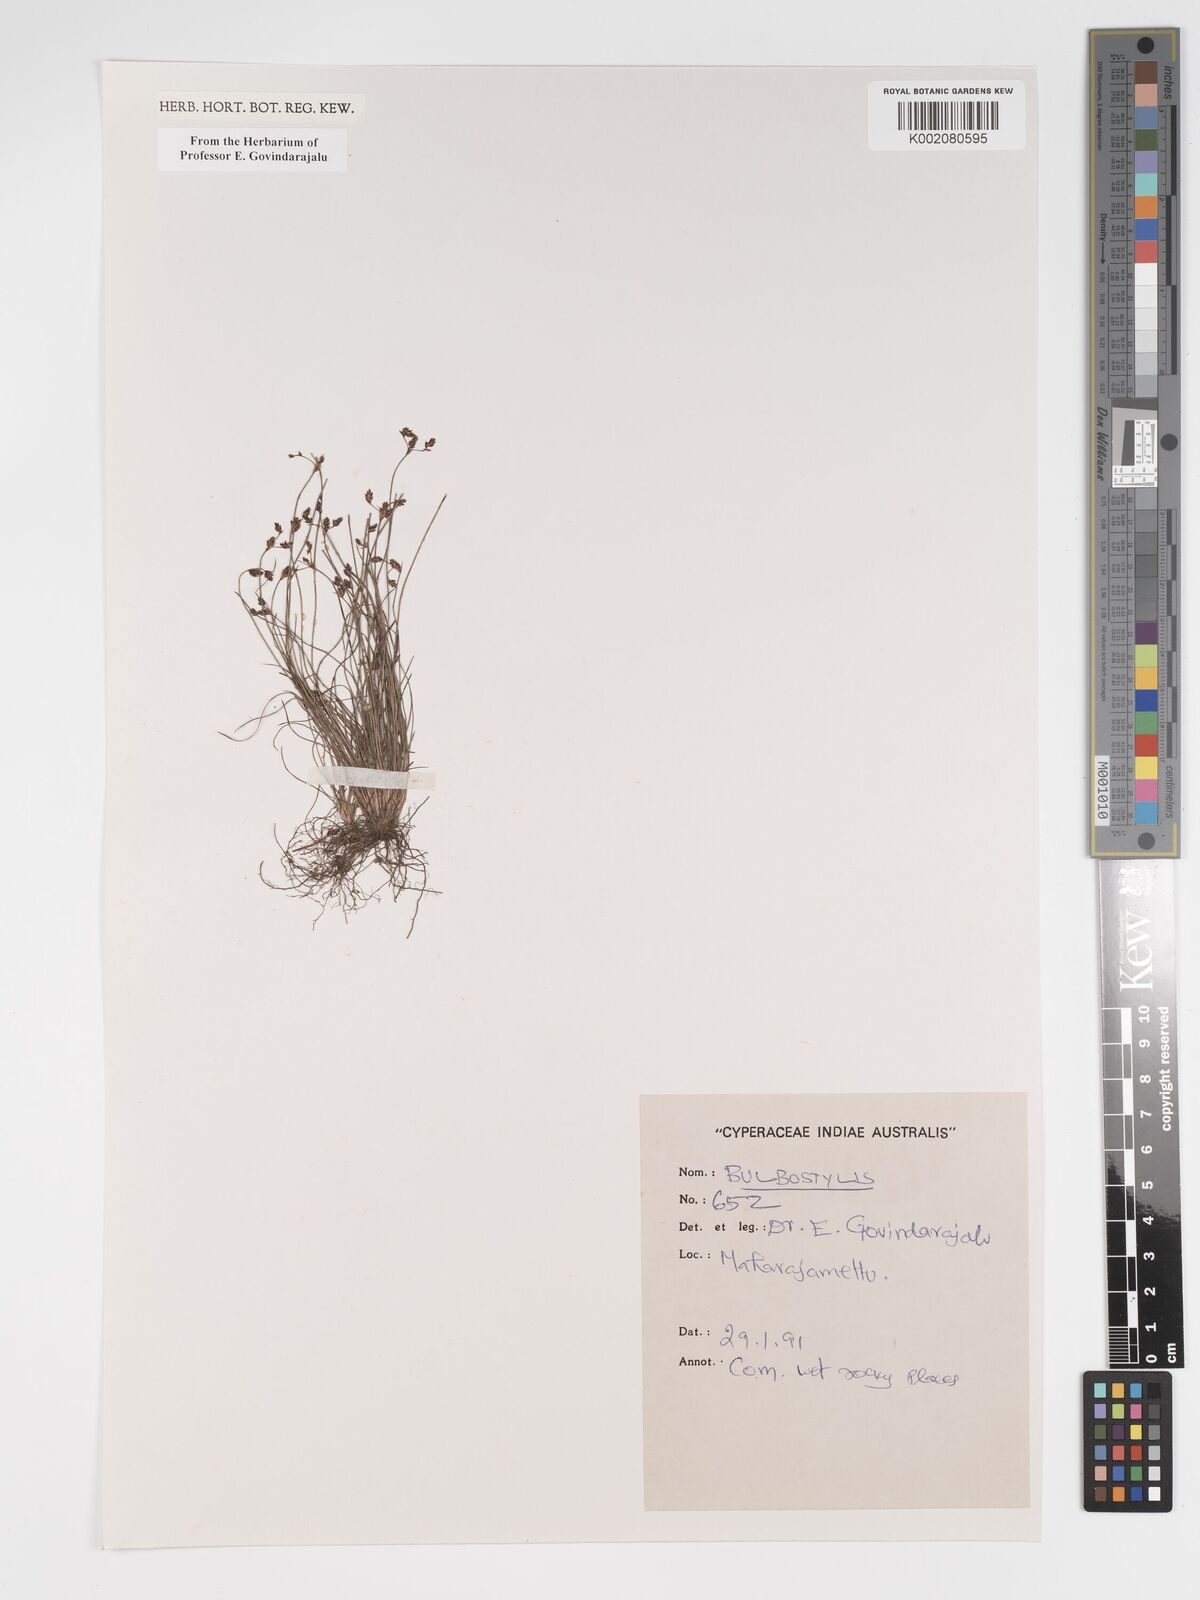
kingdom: Plantae
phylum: Tracheophyta
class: Liliopsida
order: Poales
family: Cyperaceae
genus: Bulbostylis
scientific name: Bulbostylis
